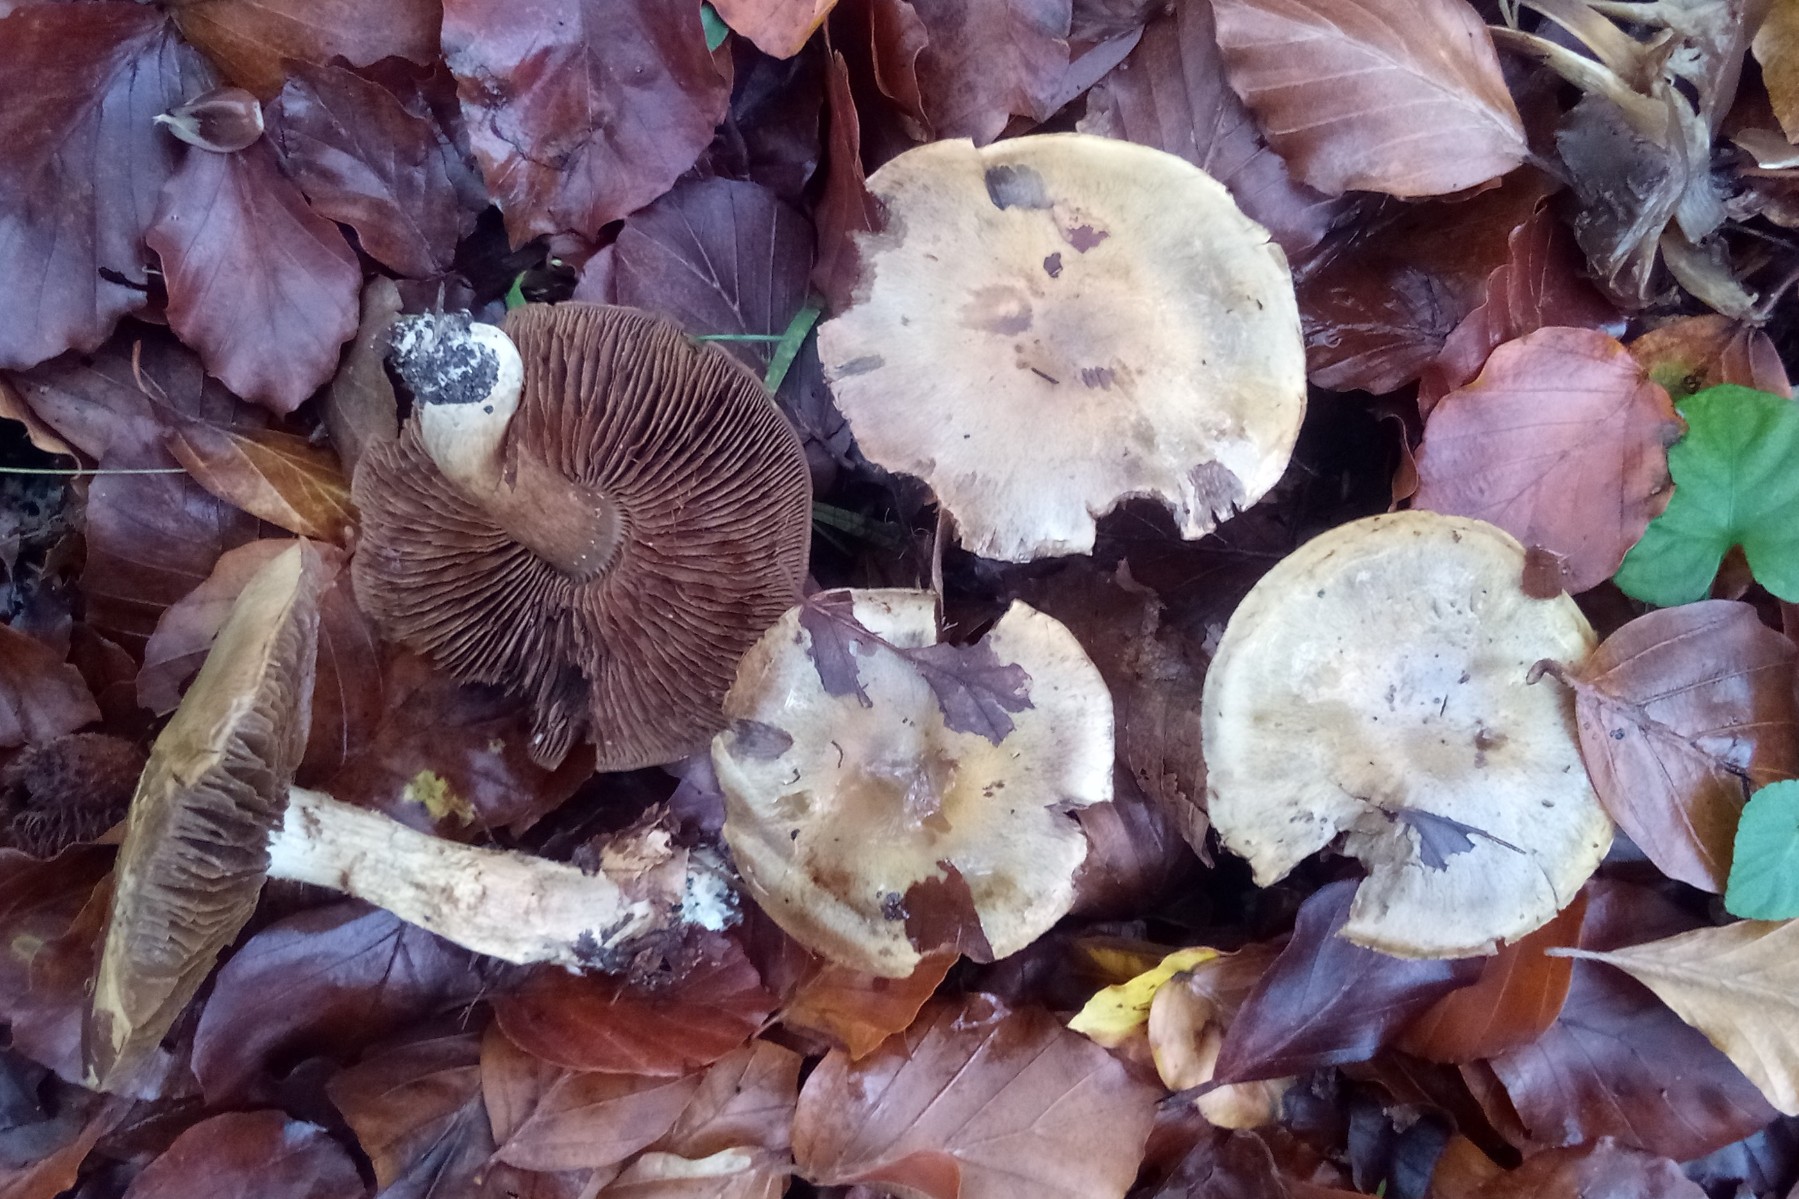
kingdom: Fungi
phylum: Basidiomycota
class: Agaricomycetes
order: Agaricales
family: Cortinariaceae
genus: Cortinarius
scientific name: Cortinarius
